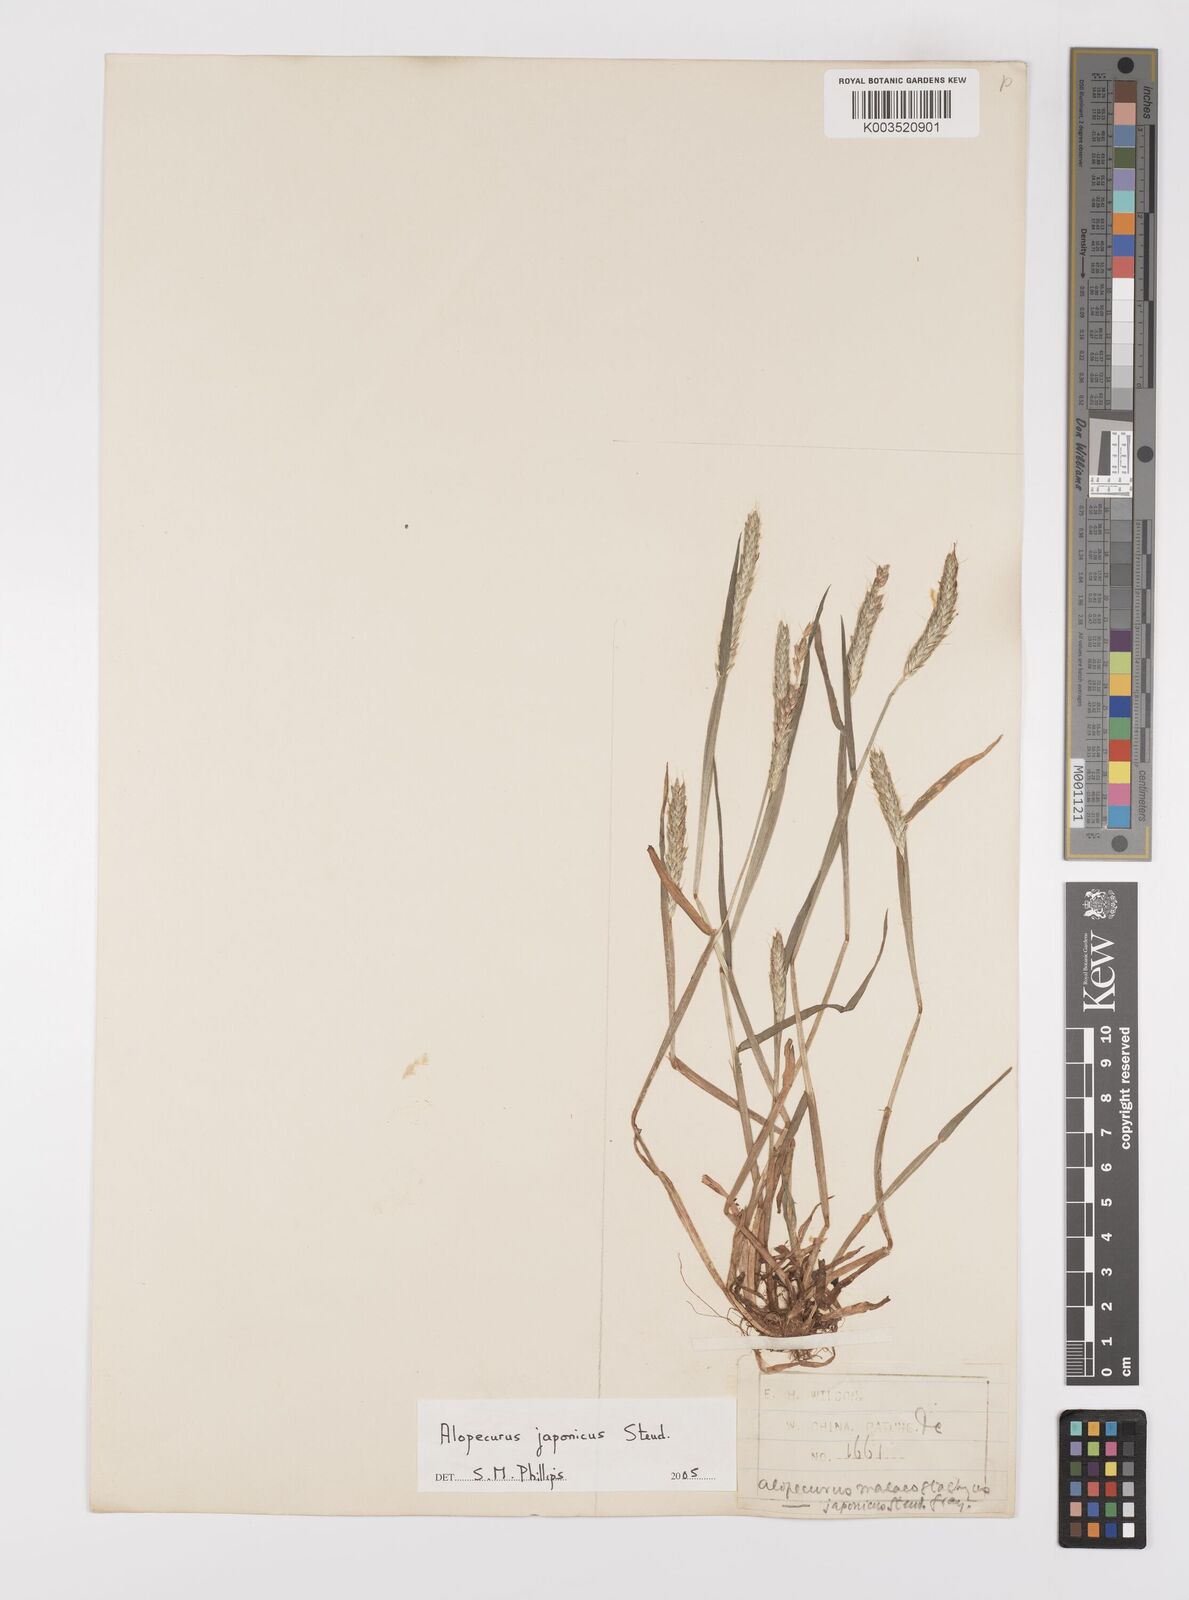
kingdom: Plantae
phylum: Tracheophyta
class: Liliopsida
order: Poales
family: Poaceae
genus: Alopecurus
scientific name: Alopecurus japonicus
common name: Japanese foxtail
